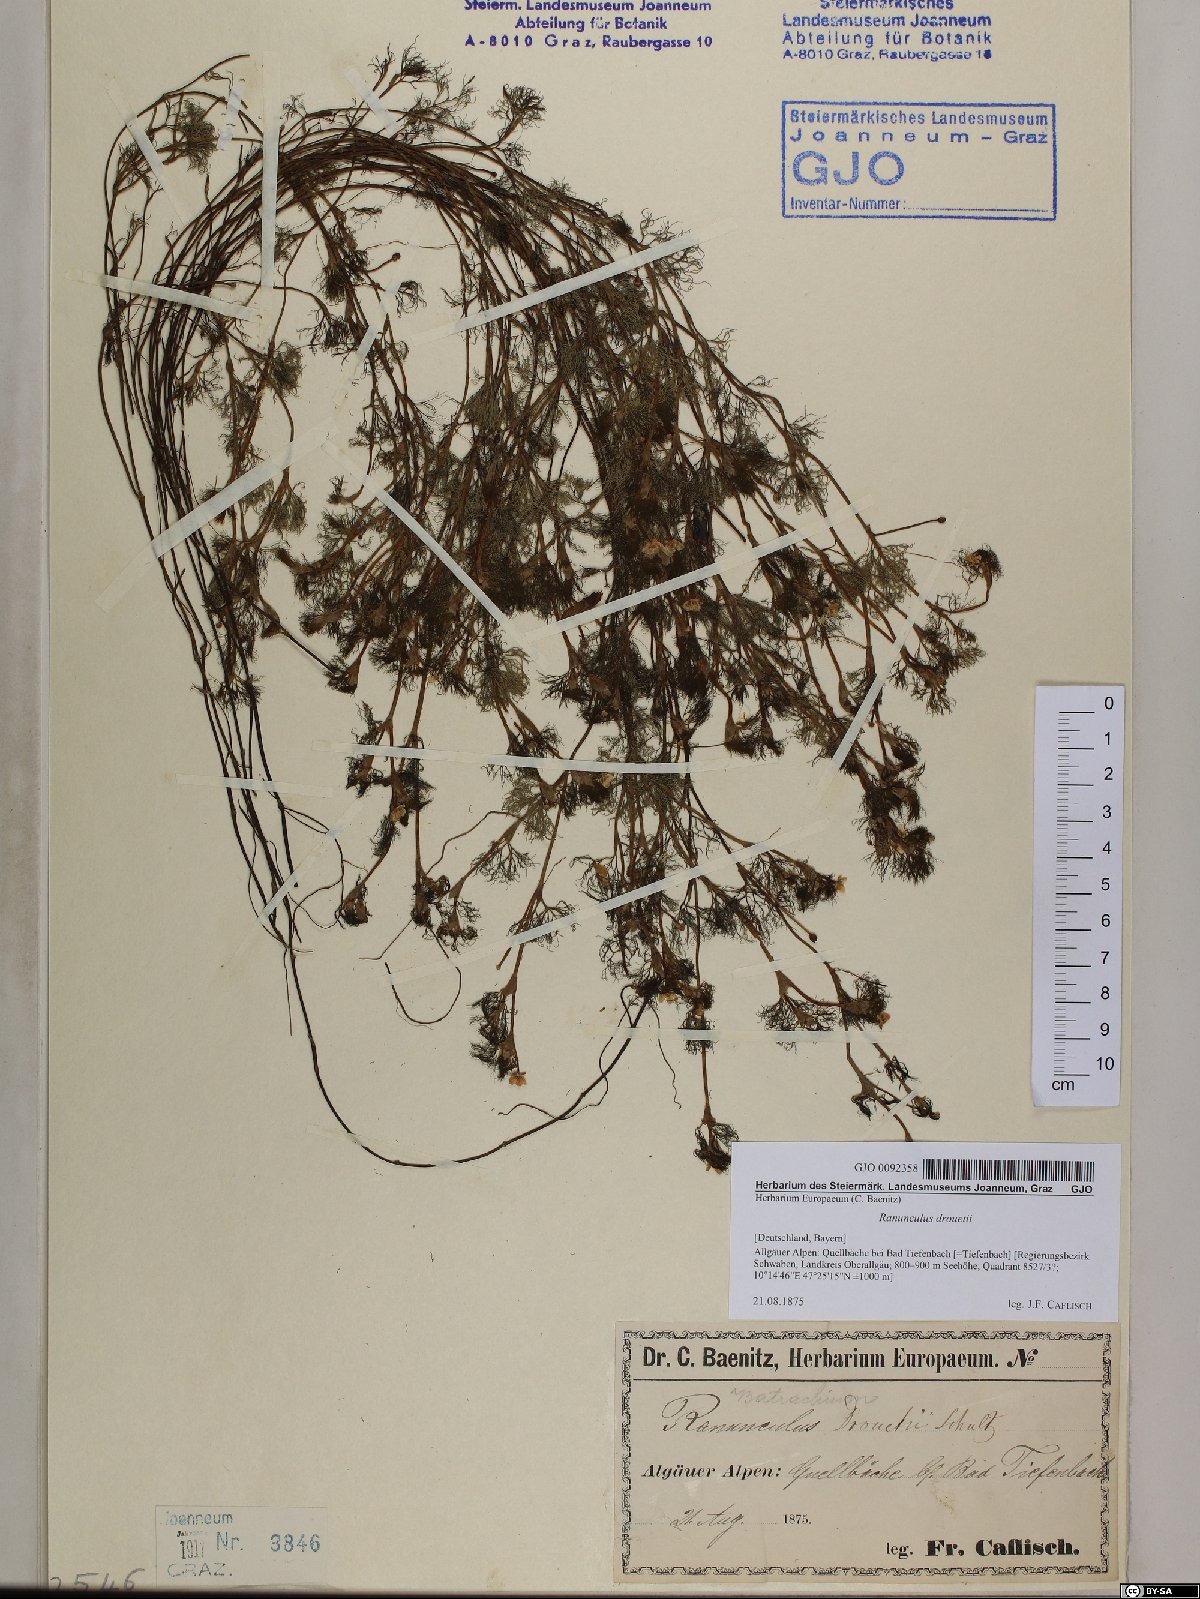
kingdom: Plantae
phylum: Tracheophyta
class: Magnoliopsida
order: Ranunculales
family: Ranunculaceae
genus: Ranunculus
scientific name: Ranunculus trichophyllus
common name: Thread-leaved water-crowfoot
